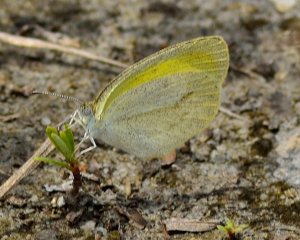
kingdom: Animalia
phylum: Arthropoda
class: Insecta
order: Lepidoptera
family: Pieridae
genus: Eurema
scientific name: Eurema daira
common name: Barred Yellow
